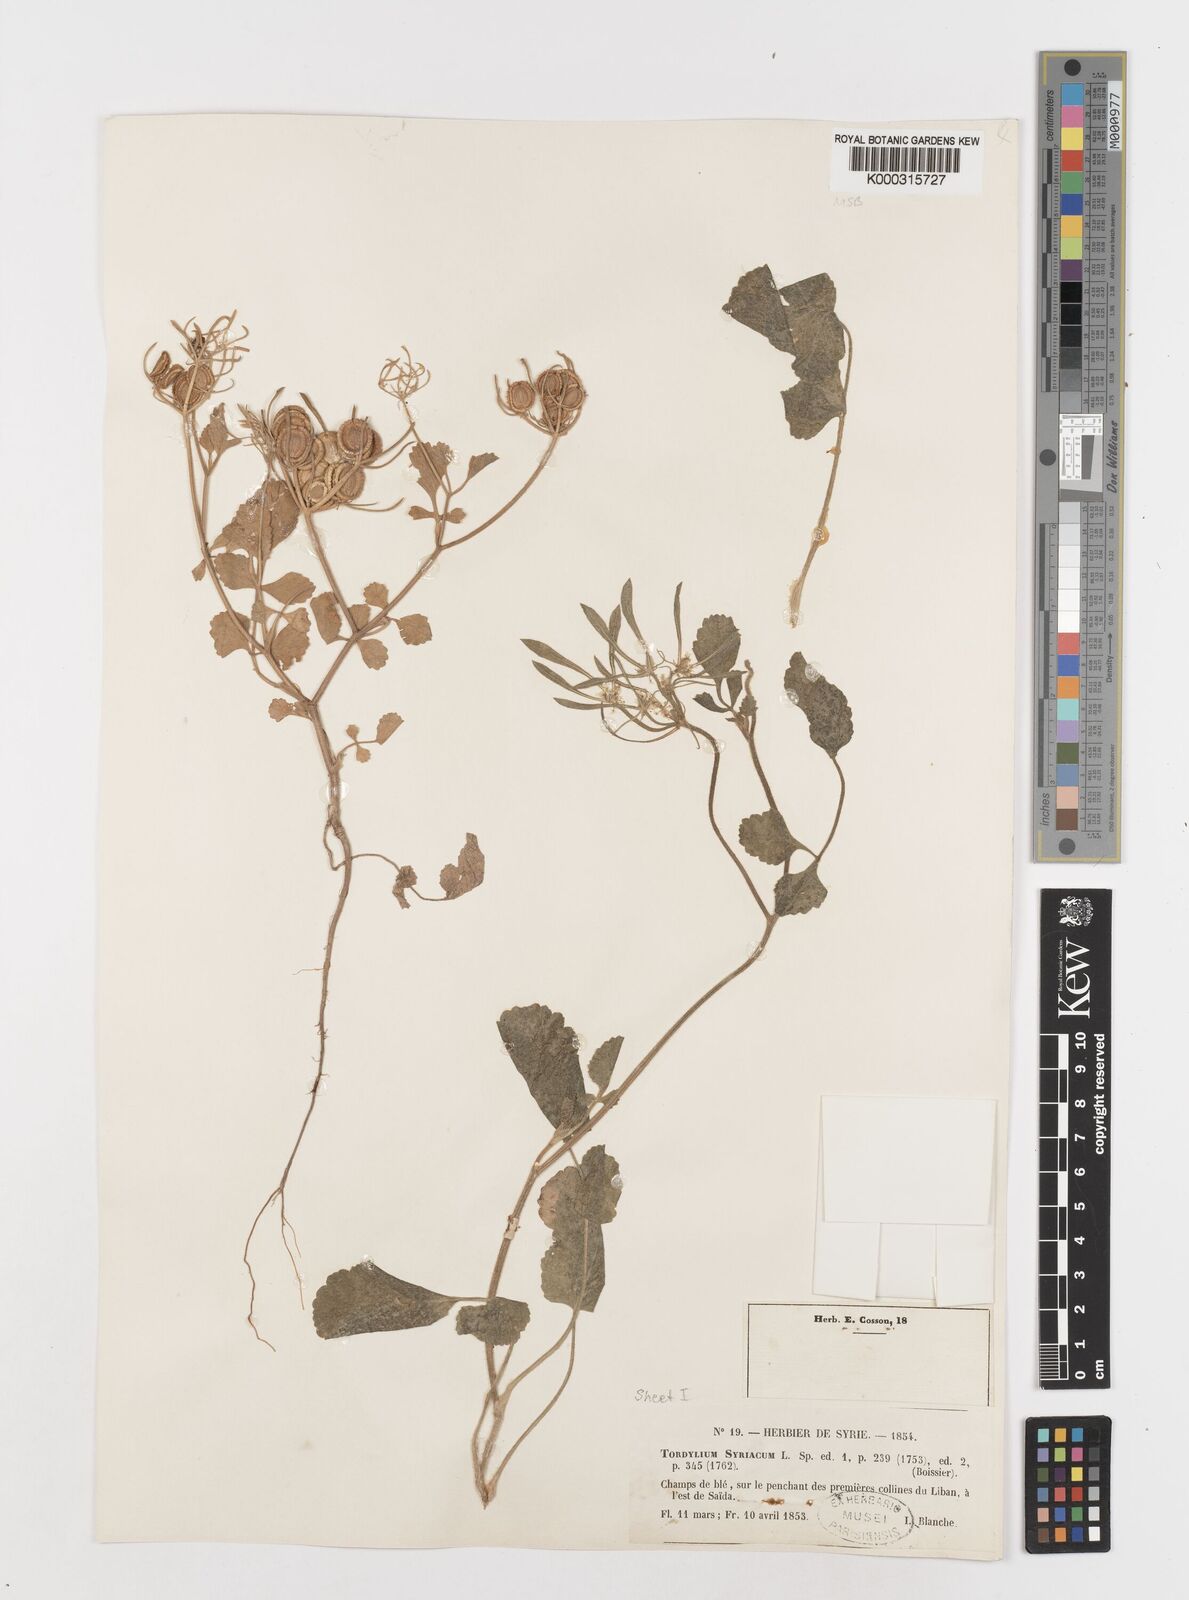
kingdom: Plantae
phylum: Tracheophyta
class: Magnoliopsida
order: Apiales
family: Apiaceae
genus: Tordylium
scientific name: Tordylium syriacum
